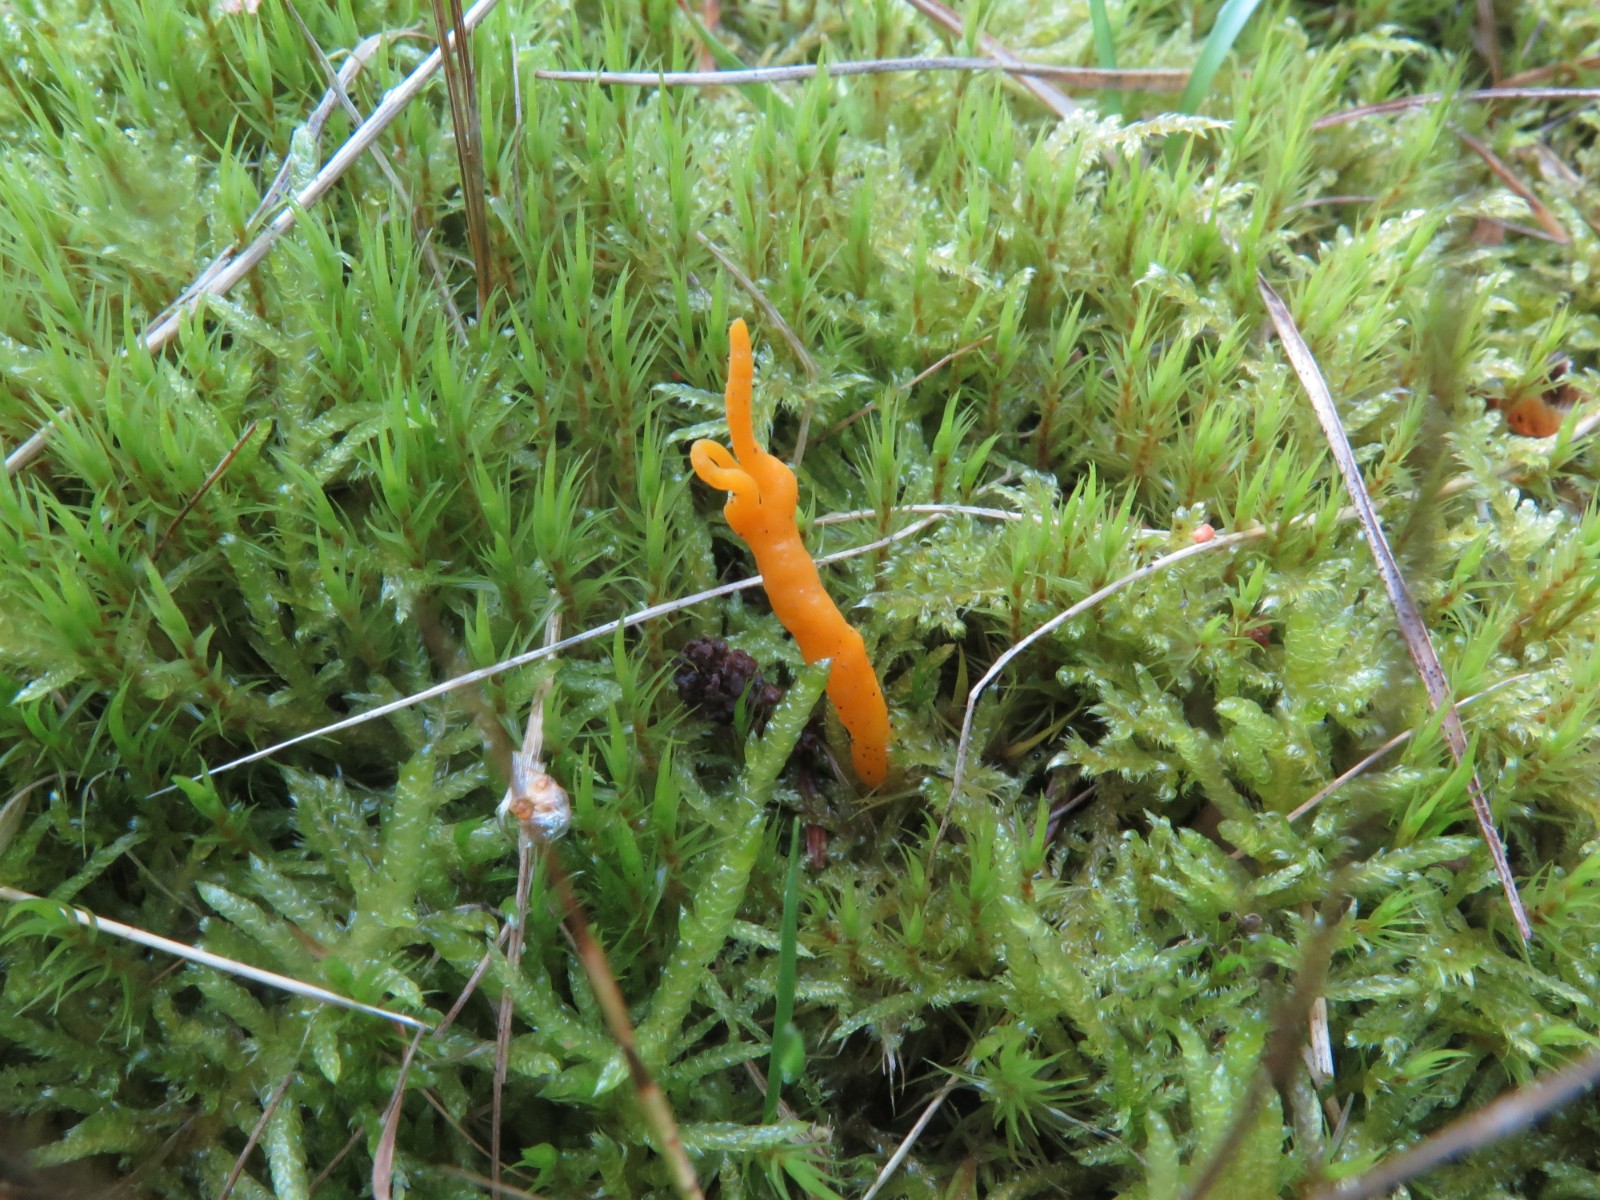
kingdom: Fungi
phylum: Basidiomycota
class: Dacrymycetes
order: Dacrymycetales
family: Dacrymycetaceae
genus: Calocera
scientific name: Calocera viscosa
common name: almindelig guldgaffel
